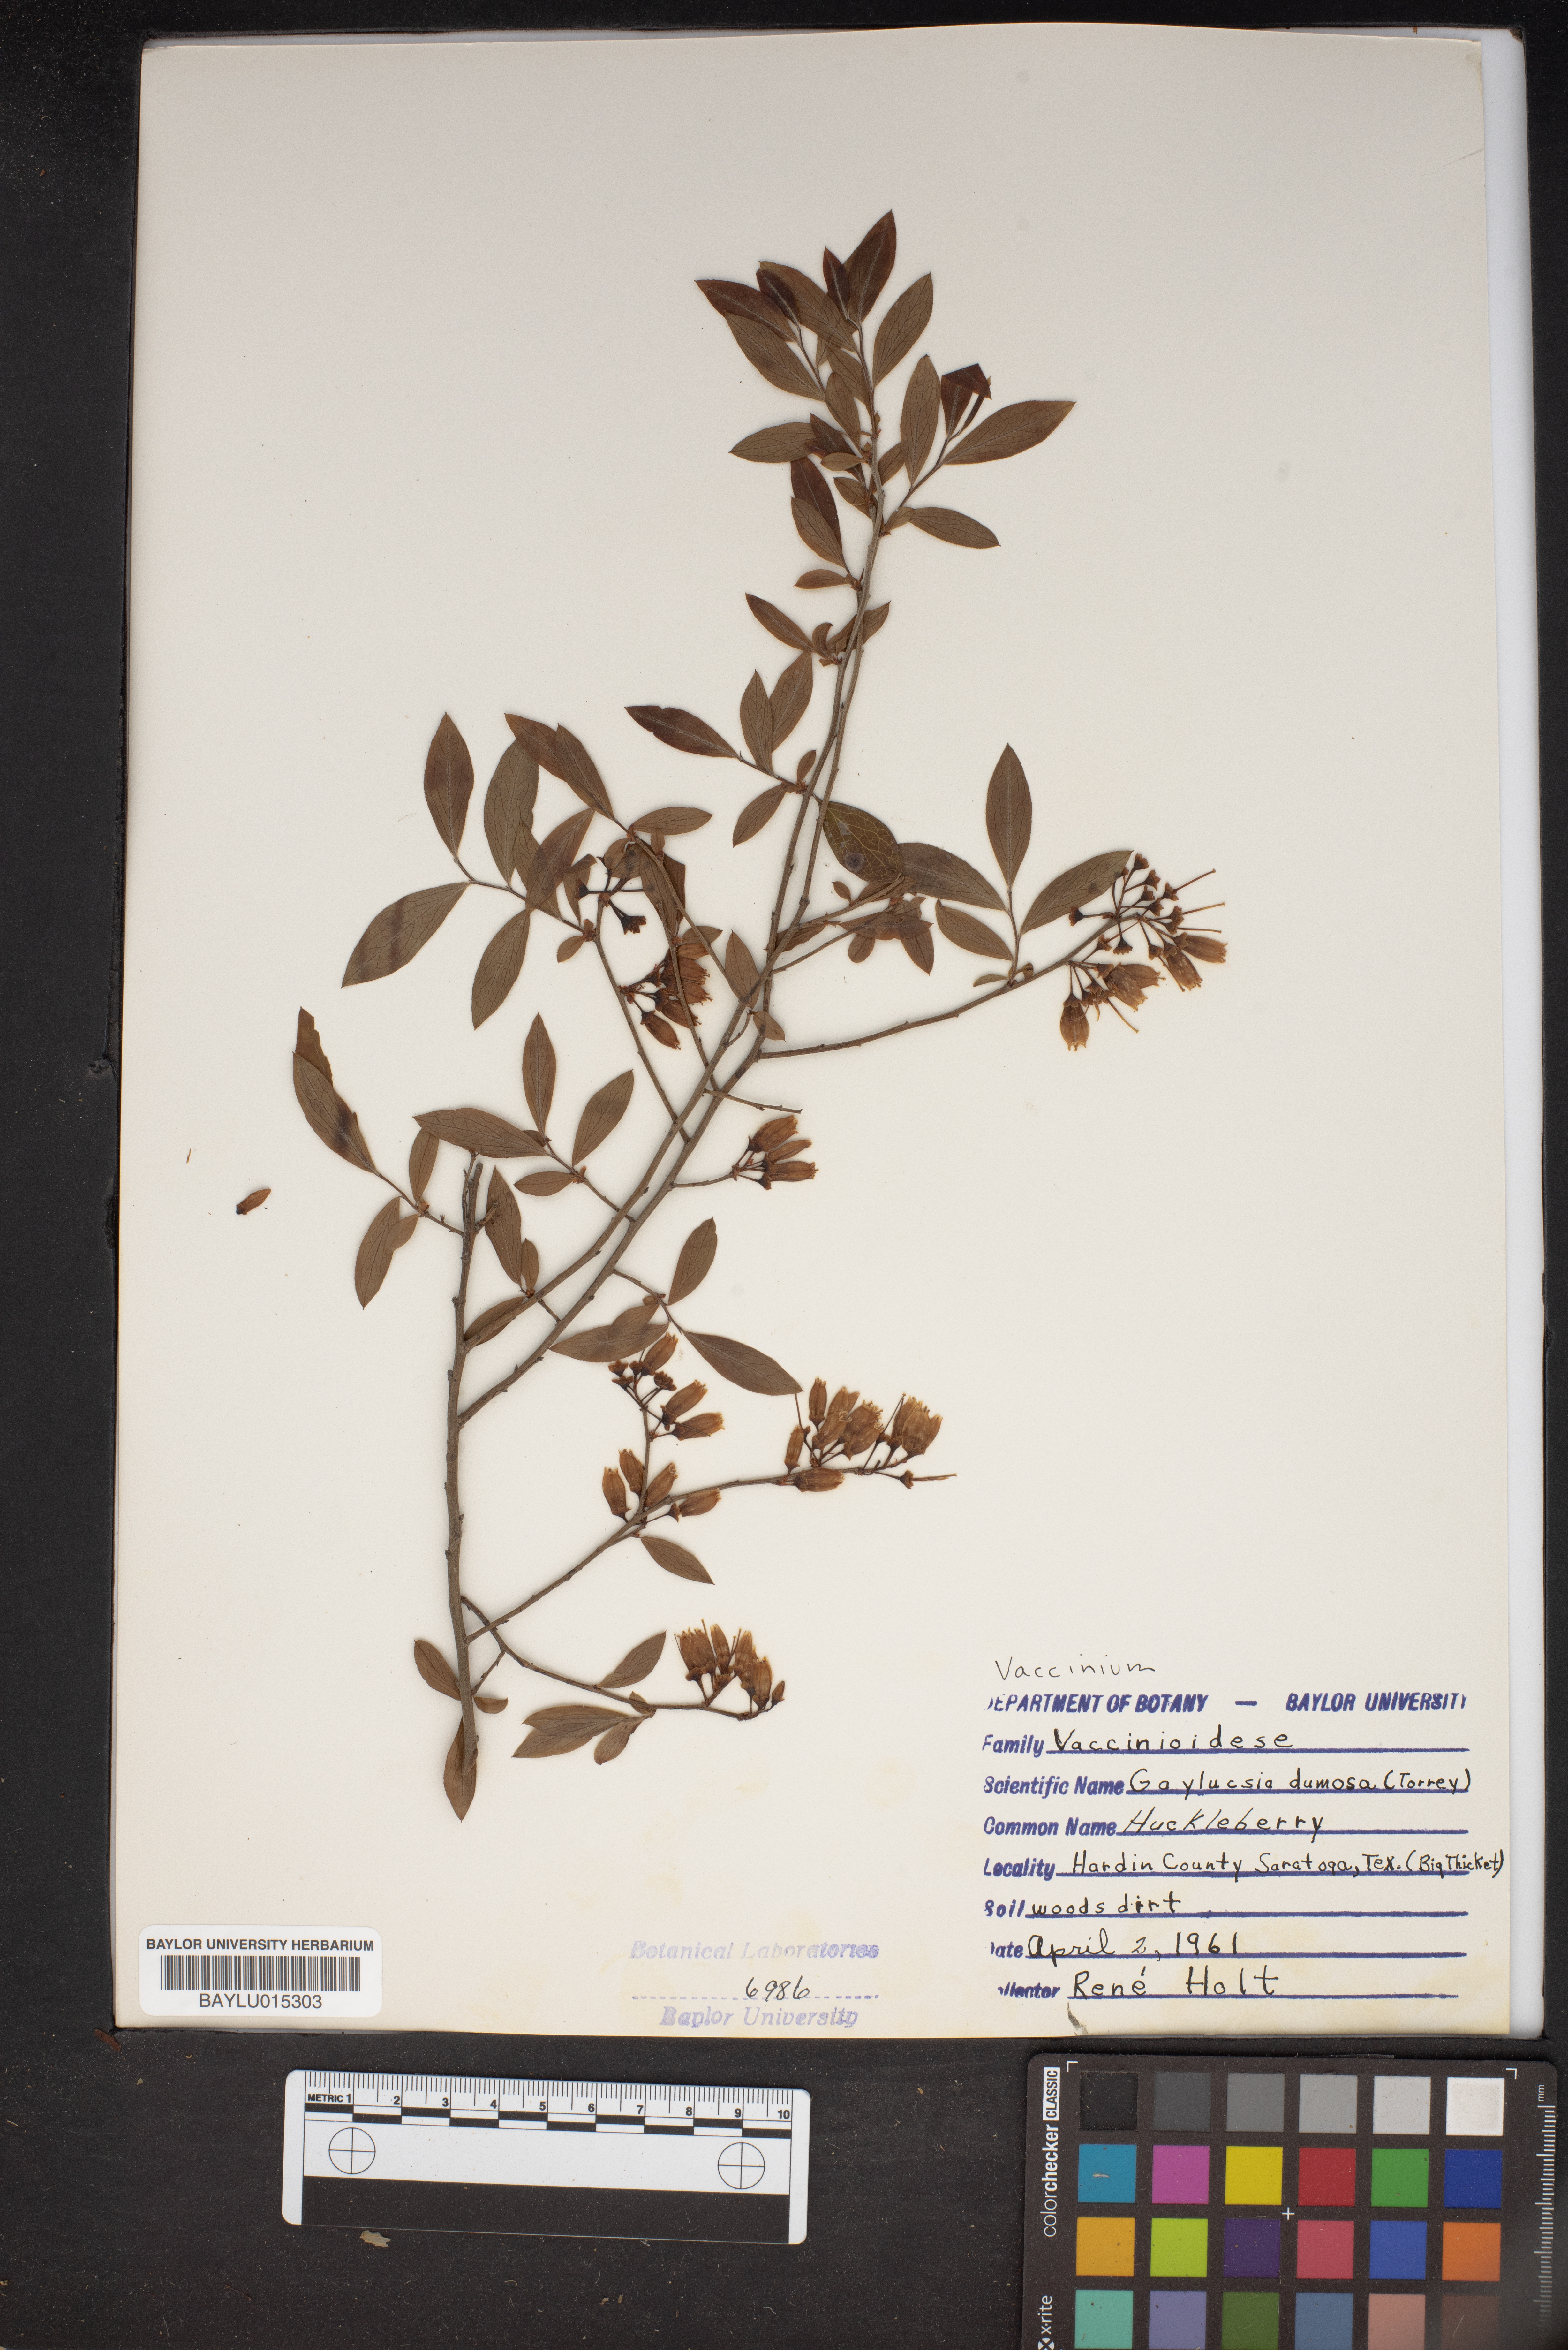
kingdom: Plantae
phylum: Tracheophyta
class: Magnoliopsida
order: Ericales
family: Ericaceae
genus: Gaylussacia
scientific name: Gaylussacia dumosa
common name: Dwarf huckleberry
